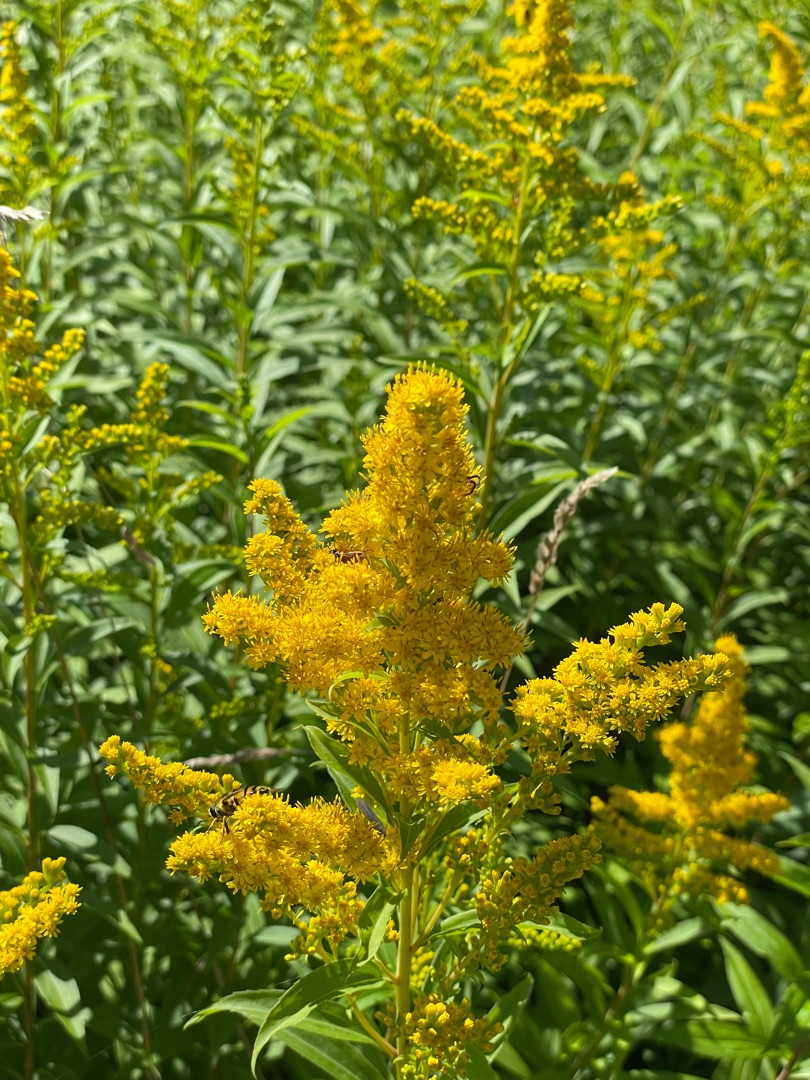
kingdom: Plantae
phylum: Tracheophyta
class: Magnoliopsida
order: Asterales
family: Asteraceae
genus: Solidago
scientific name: Solidago gigantea
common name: Sildig gyldenris
